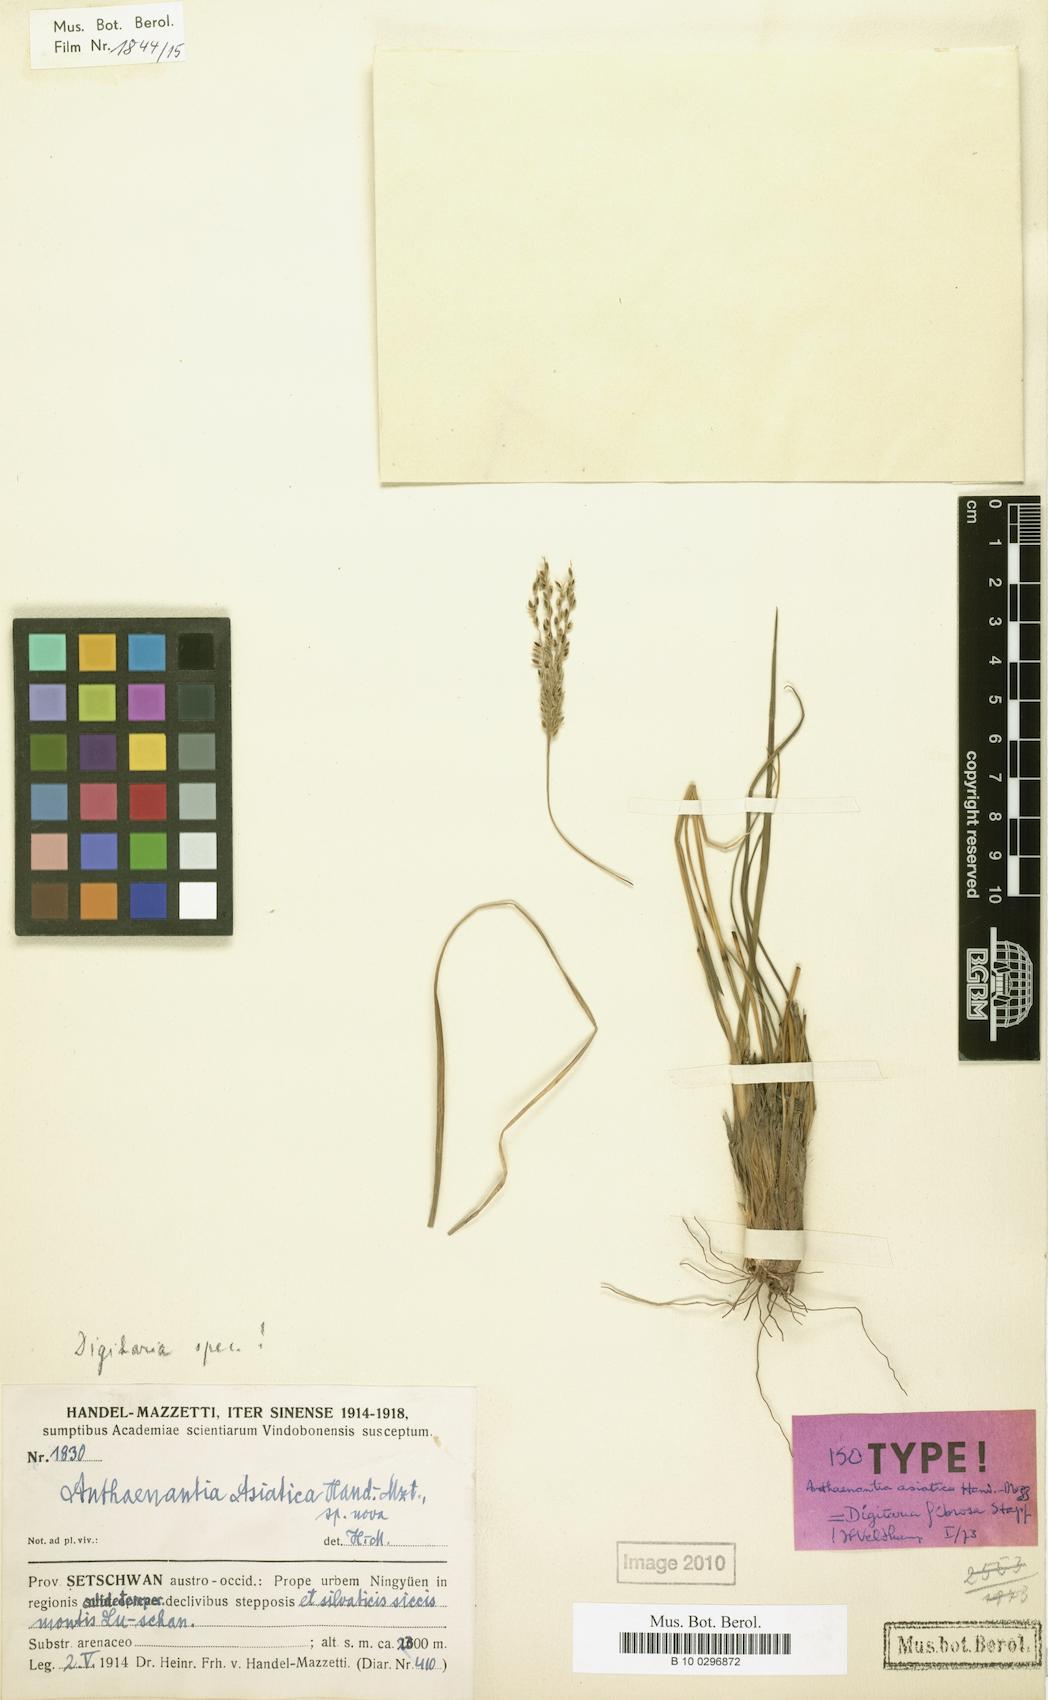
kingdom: Plantae
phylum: Tracheophyta
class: Liliopsida
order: Poales
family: Poaceae
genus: Digitaria
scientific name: Digitaria setifolia
